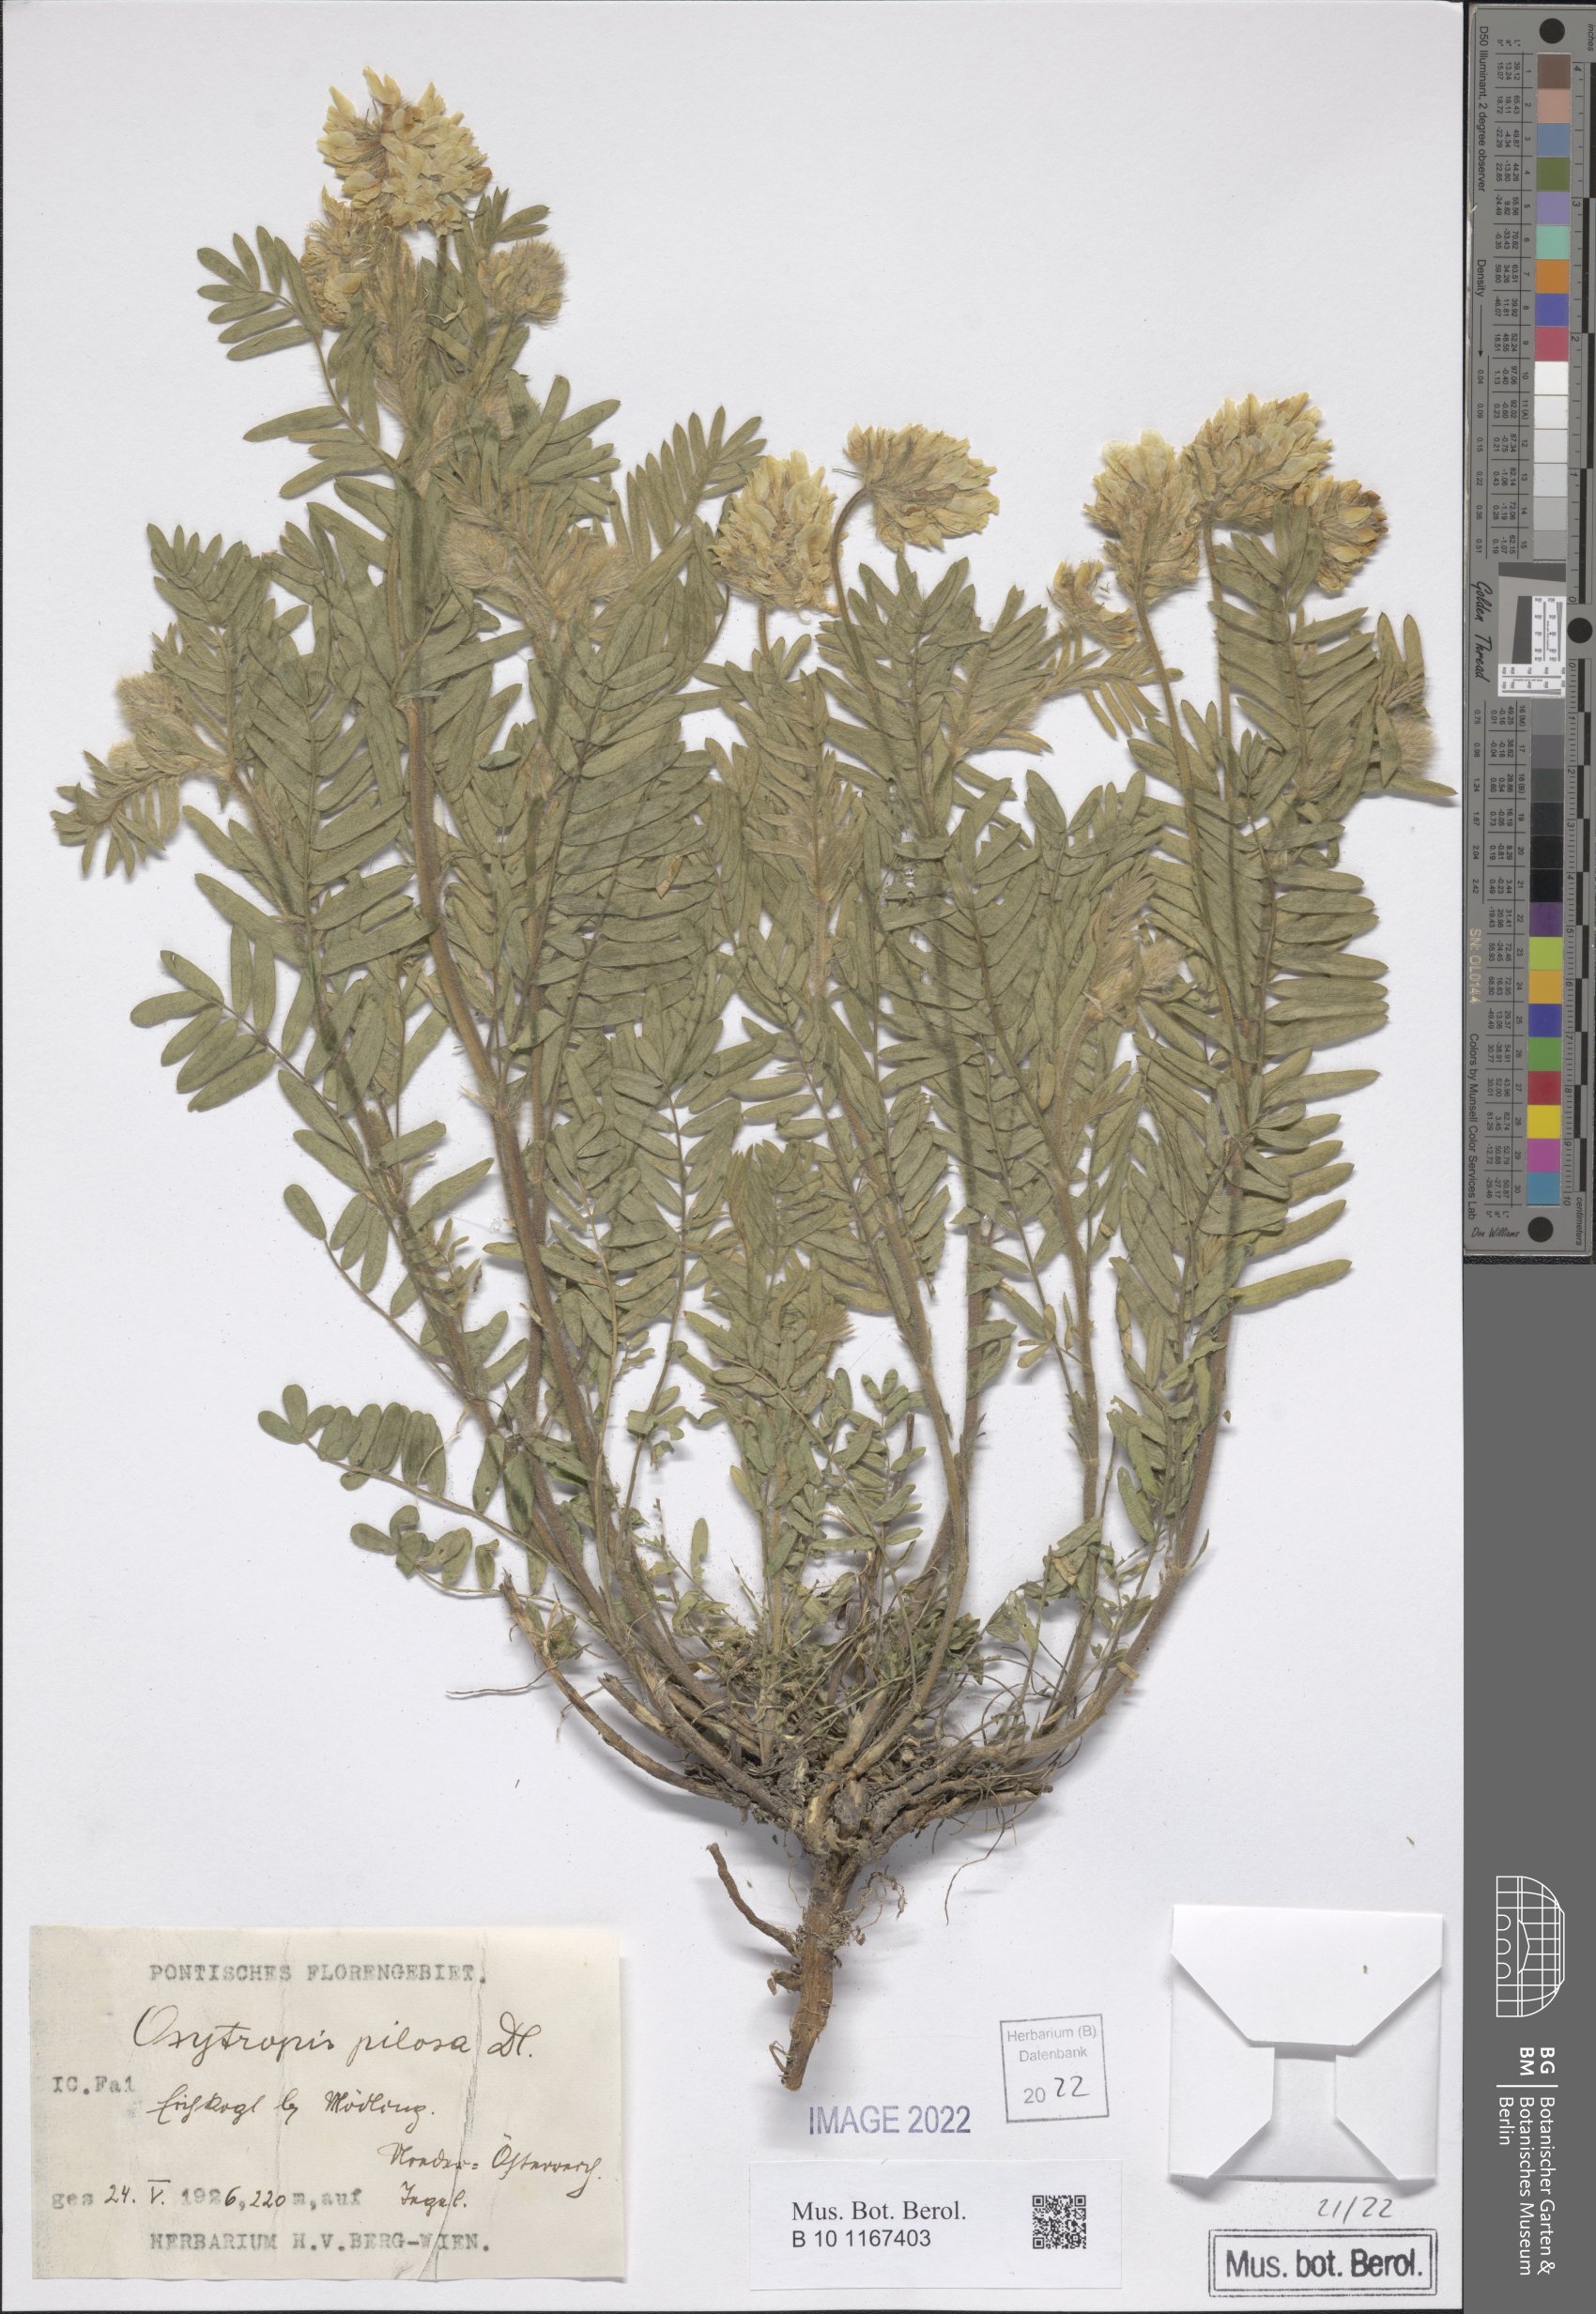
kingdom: Plantae
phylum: Tracheophyta
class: Magnoliopsida
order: Fabales
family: Fabaceae
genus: Oxytropis
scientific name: Oxytropis pilosa
